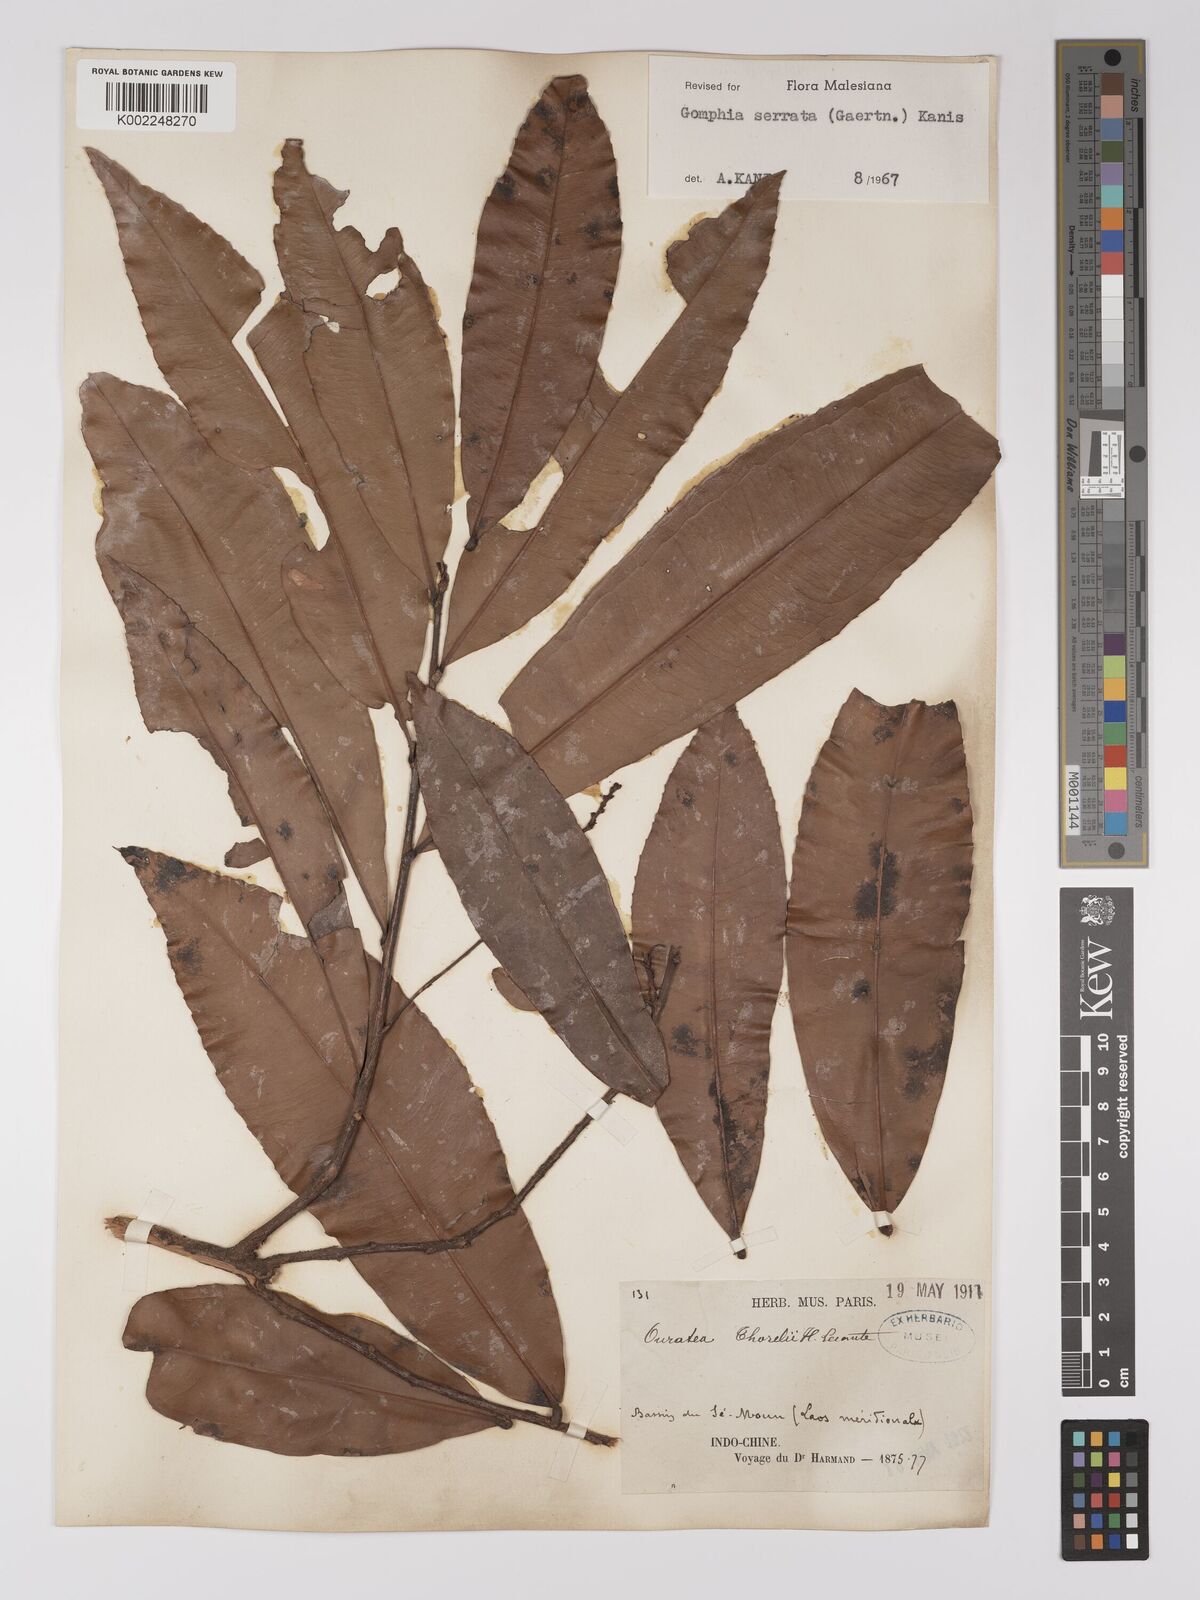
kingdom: Plantae
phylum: Tracheophyta
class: Magnoliopsida
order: Malpighiales
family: Ochnaceae
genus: Gomphia
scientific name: Gomphia serrata
